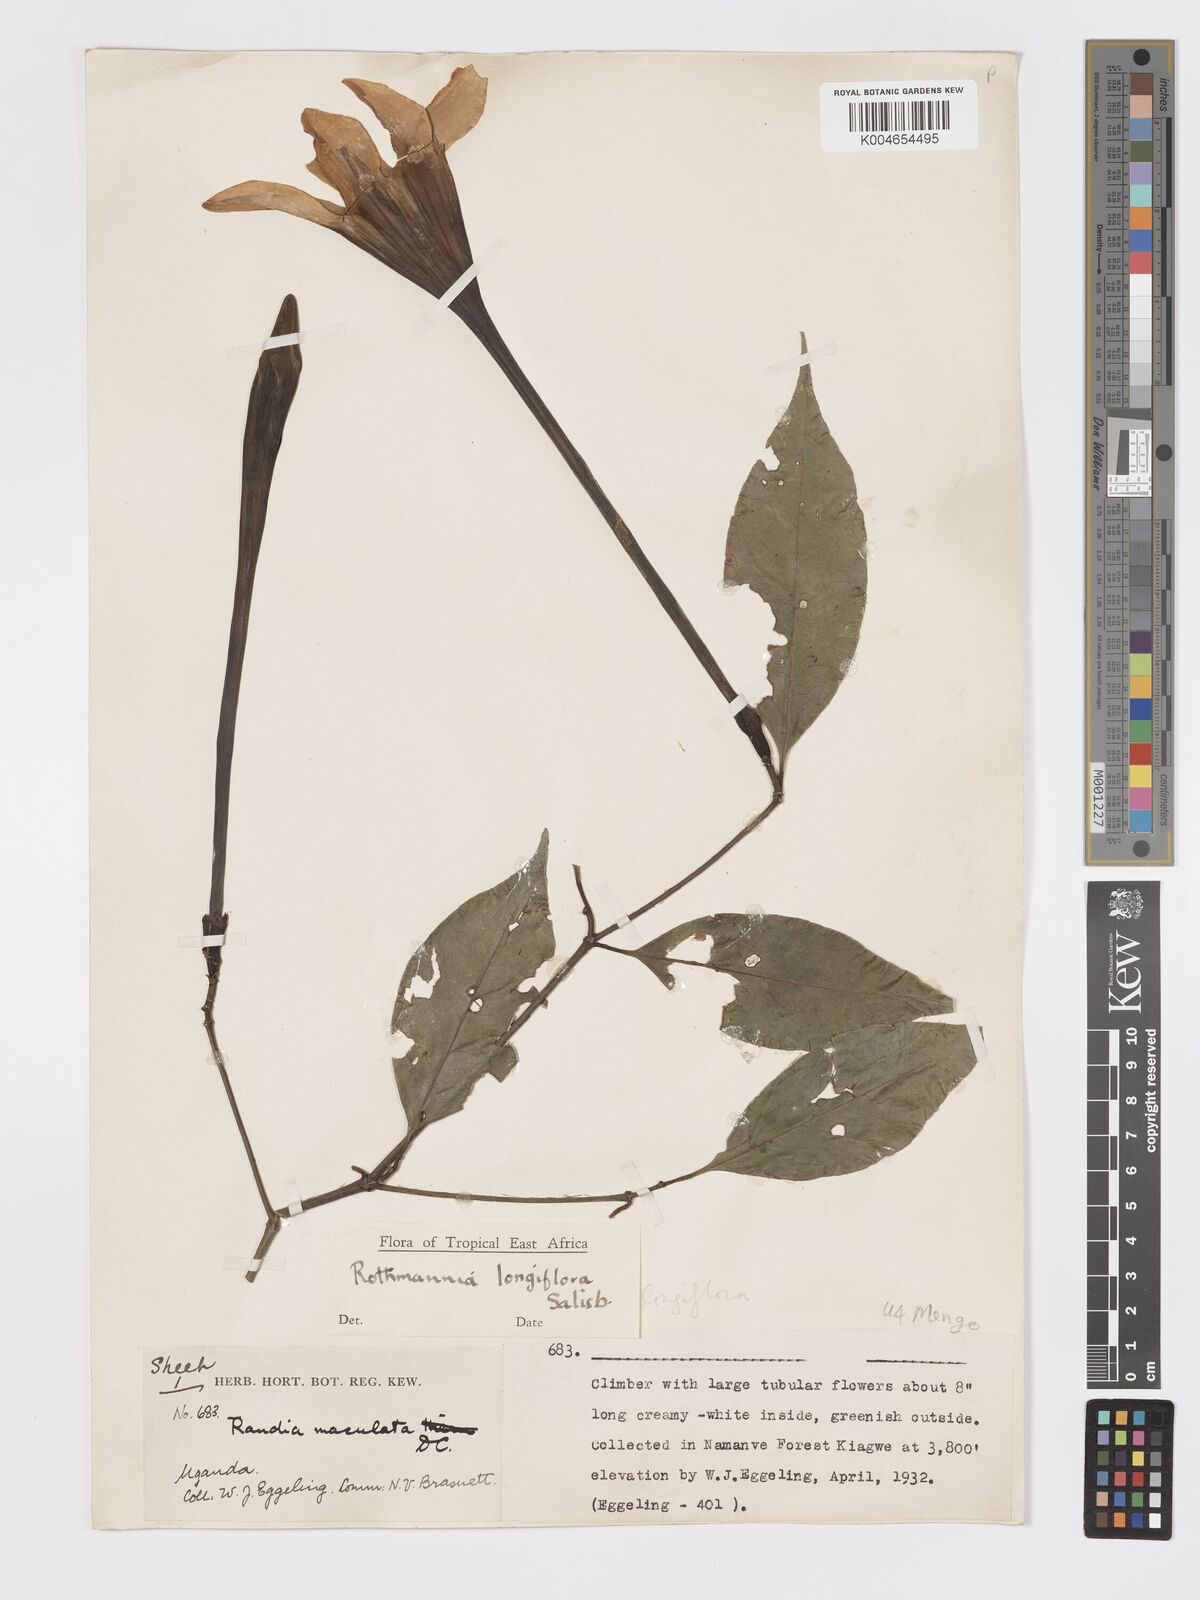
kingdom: Plantae
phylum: Tracheophyta
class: Magnoliopsida
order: Gentianales
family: Rubiaceae
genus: Rothmannia
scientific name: Rothmannia longiflora
